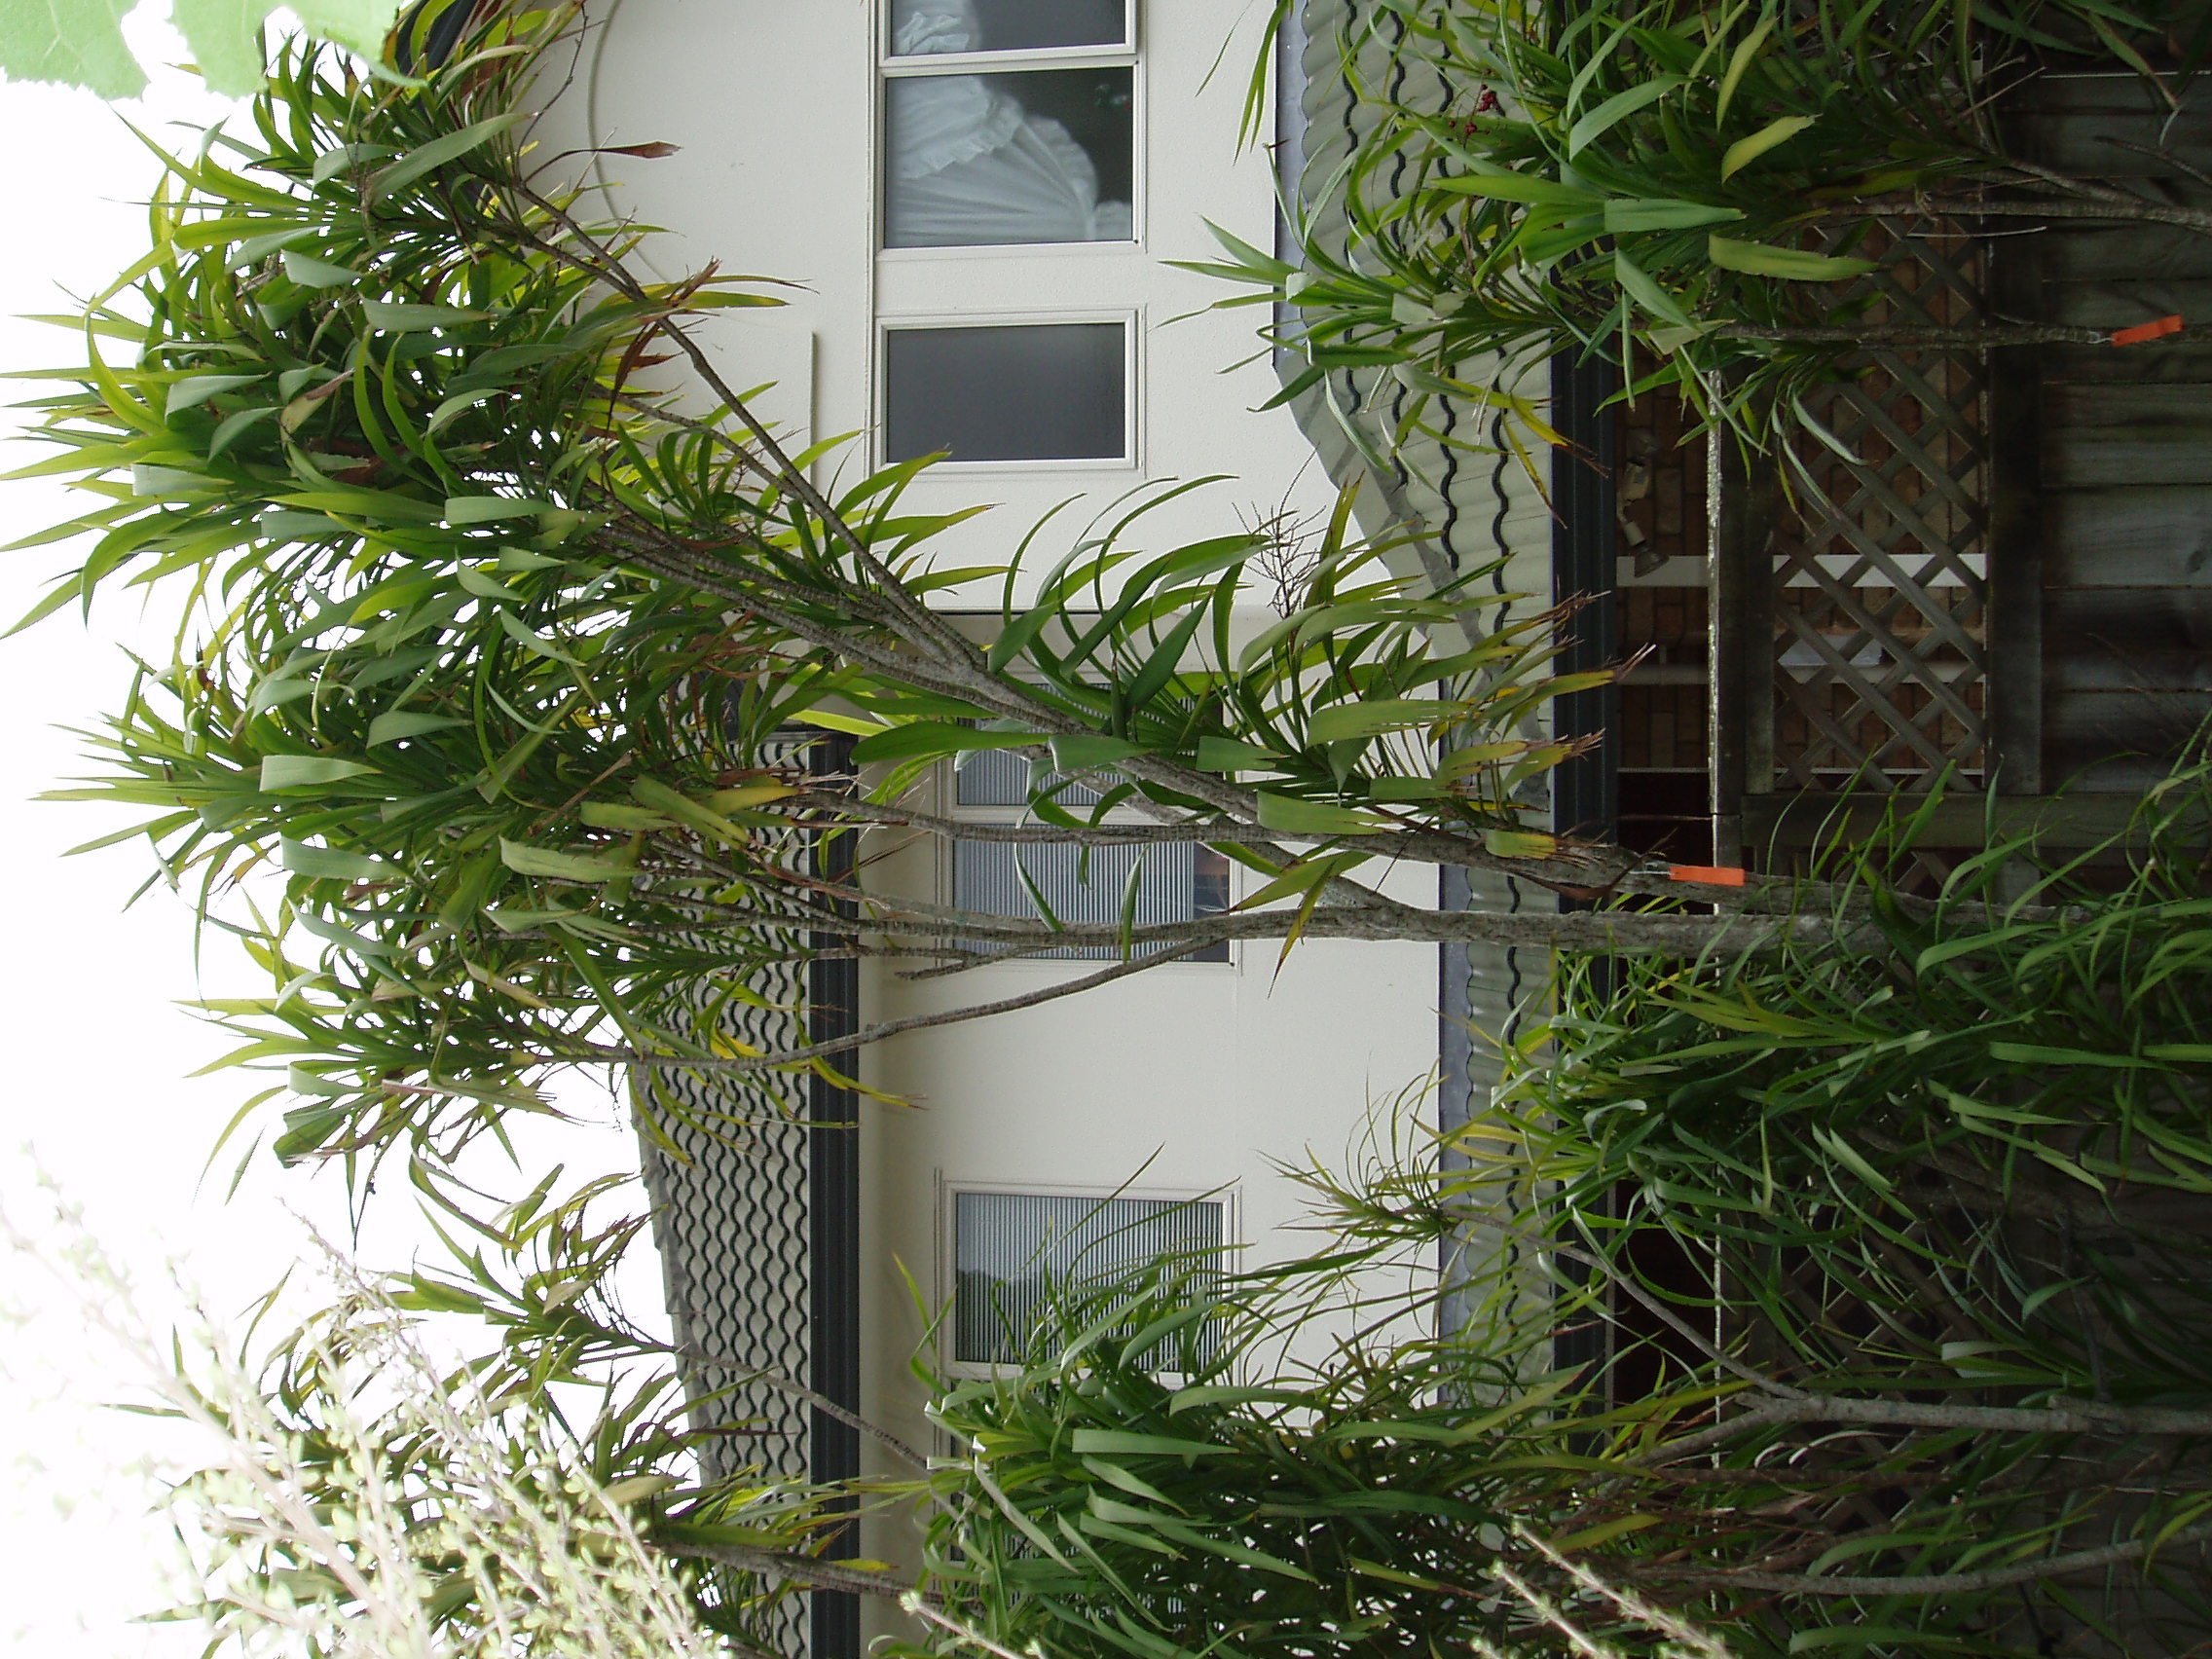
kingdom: Plantae
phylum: Tracheophyta
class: Liliopsida
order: Asparagales
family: Asparagaceae
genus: Cordyline
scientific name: Cordyline rubra
